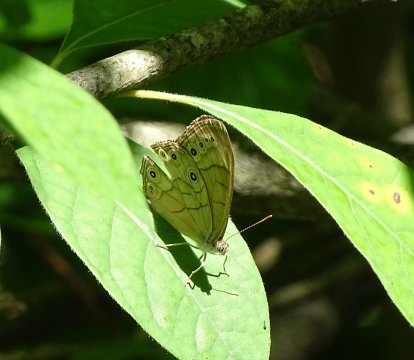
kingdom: Animalia
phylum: Arthropoda
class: Insecta
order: Lepidoptera
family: Nymphalidae
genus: Lethe
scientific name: Lethe eurydice
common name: Appalachian Eyed Brown
